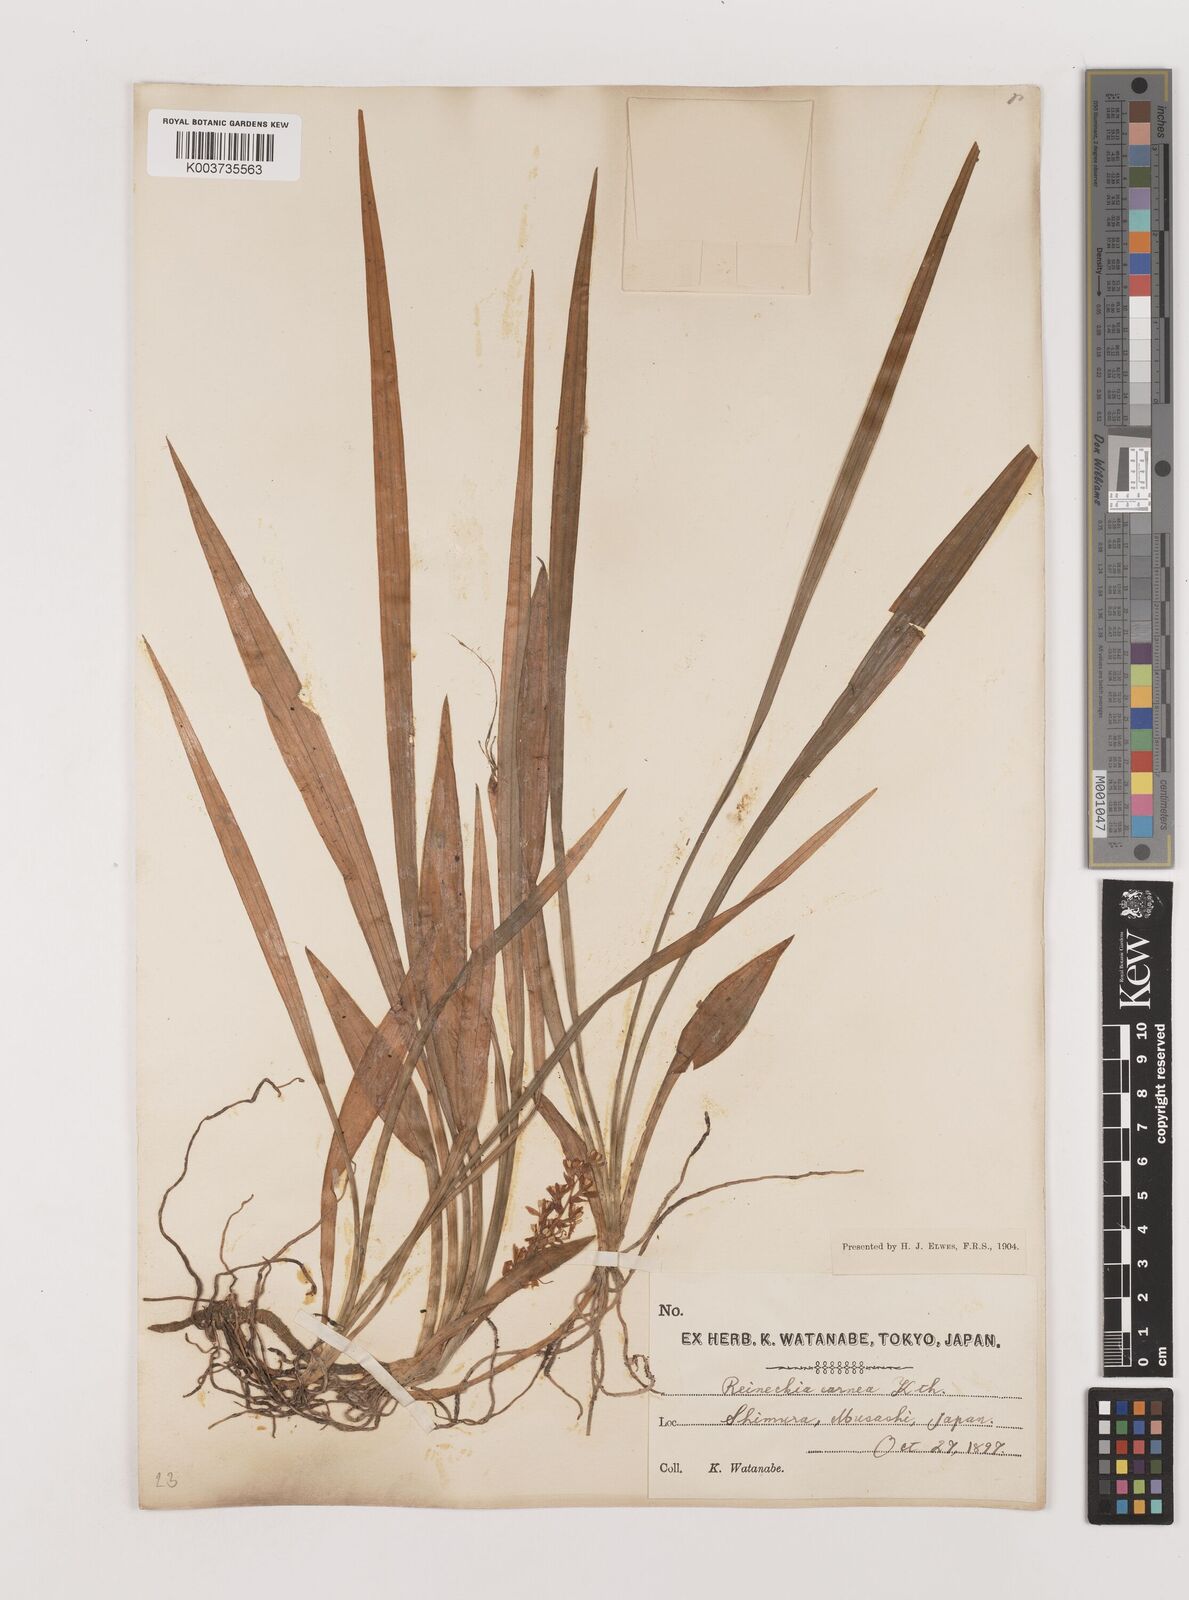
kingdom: Plantae
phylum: Tracheophyta
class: Liliopsida
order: Asparagales
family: Asparagaceae
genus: Reineckea
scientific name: Reineckea carnea
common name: Reineckea
